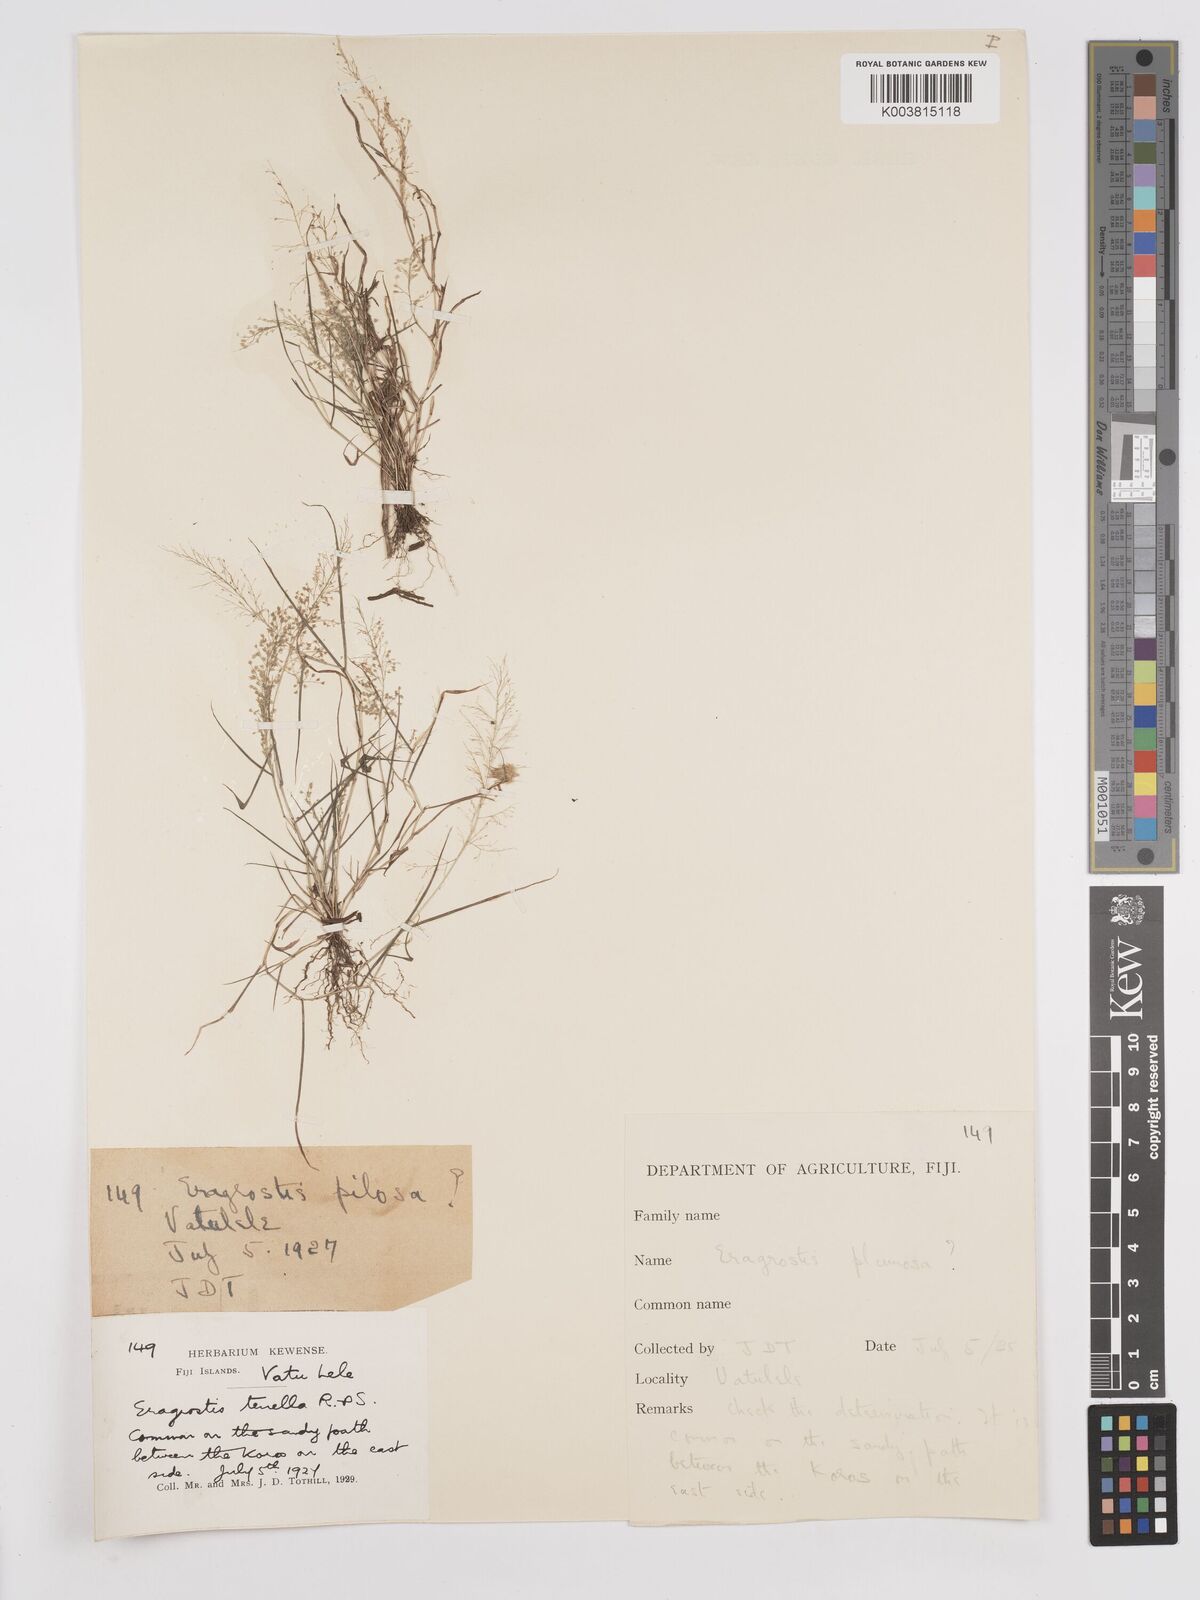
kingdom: Plantae
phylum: Tracheophyta
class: Liliopsida
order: Poales
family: Poaceae
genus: Eragrostis
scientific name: Eragrostis tenella
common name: Japanese lovegrass
